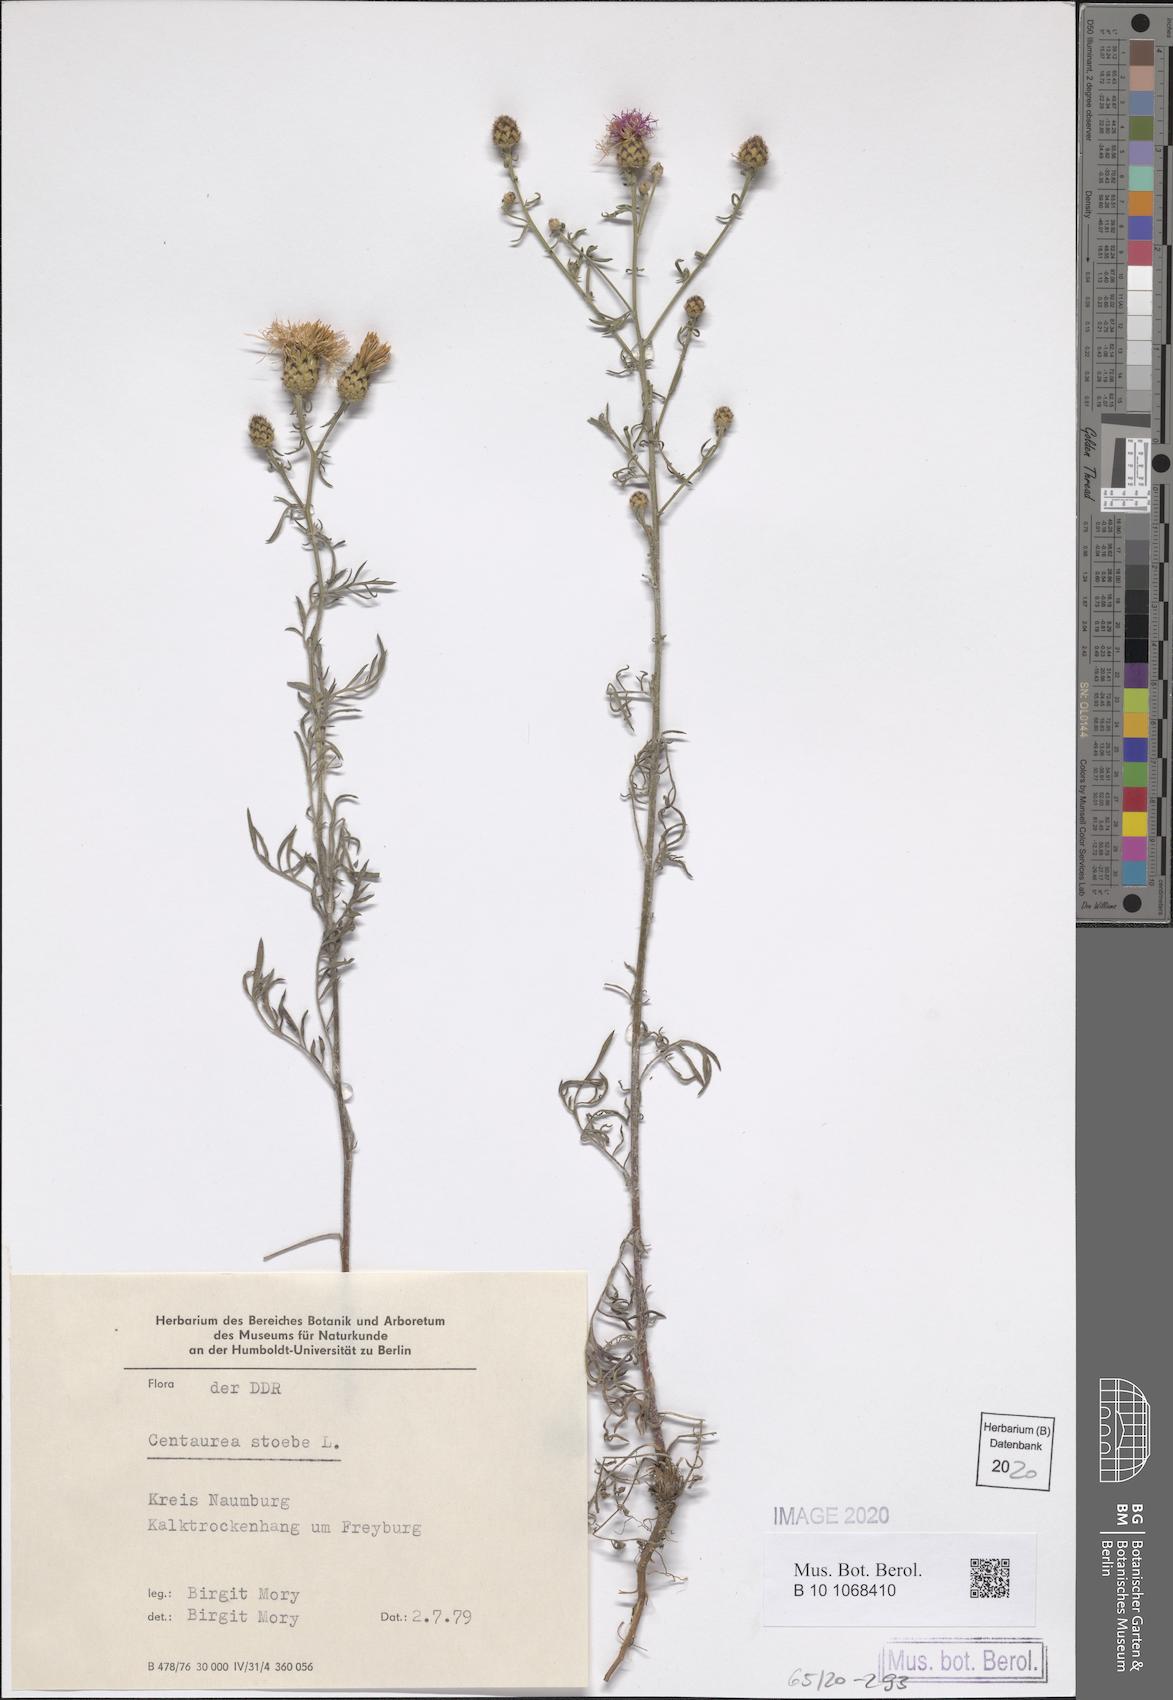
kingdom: Plantae
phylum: Tracheophyta
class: Magnoliopsida
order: Asterales
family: Asteraceae
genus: Centaurea
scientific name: Centaurea stoebe
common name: Spotted knapweed
